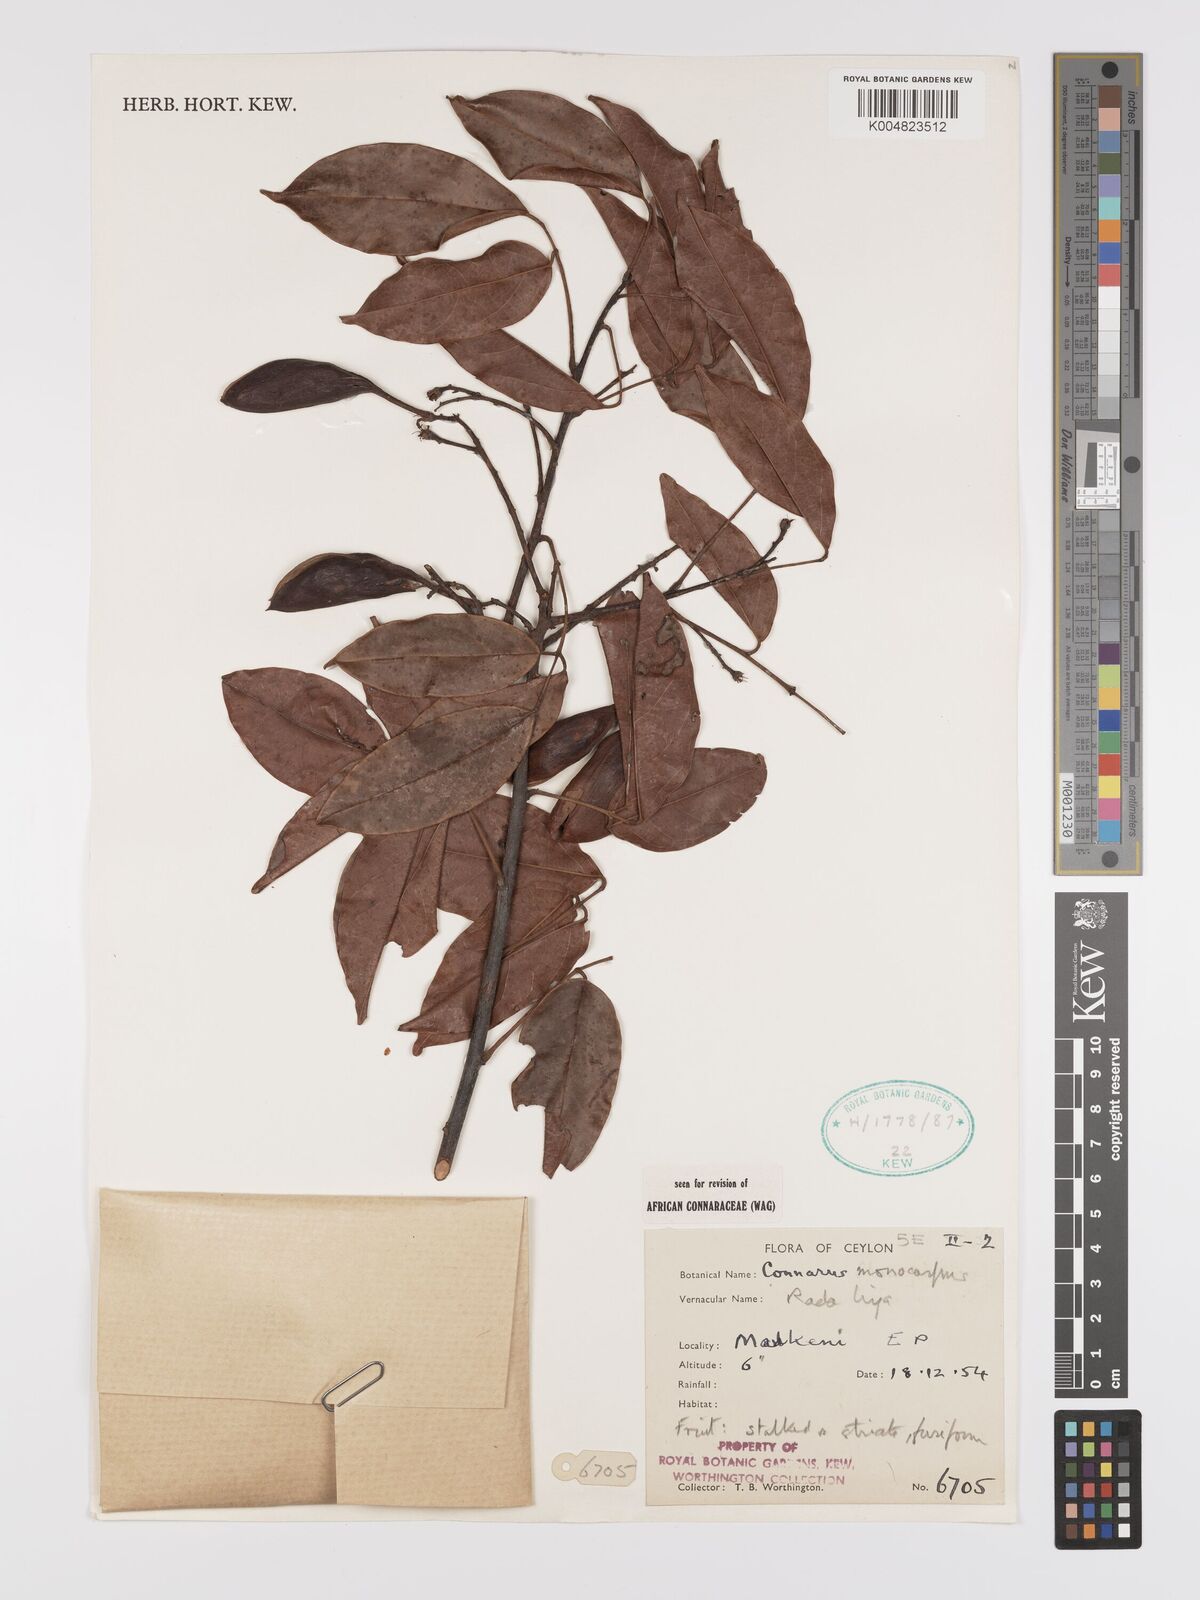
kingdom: Plantae
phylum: Tracheophyta
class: Magnoliopsida
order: Oxalidales
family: Connaraceae
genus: Connarus
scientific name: Connarus semidecandrus
